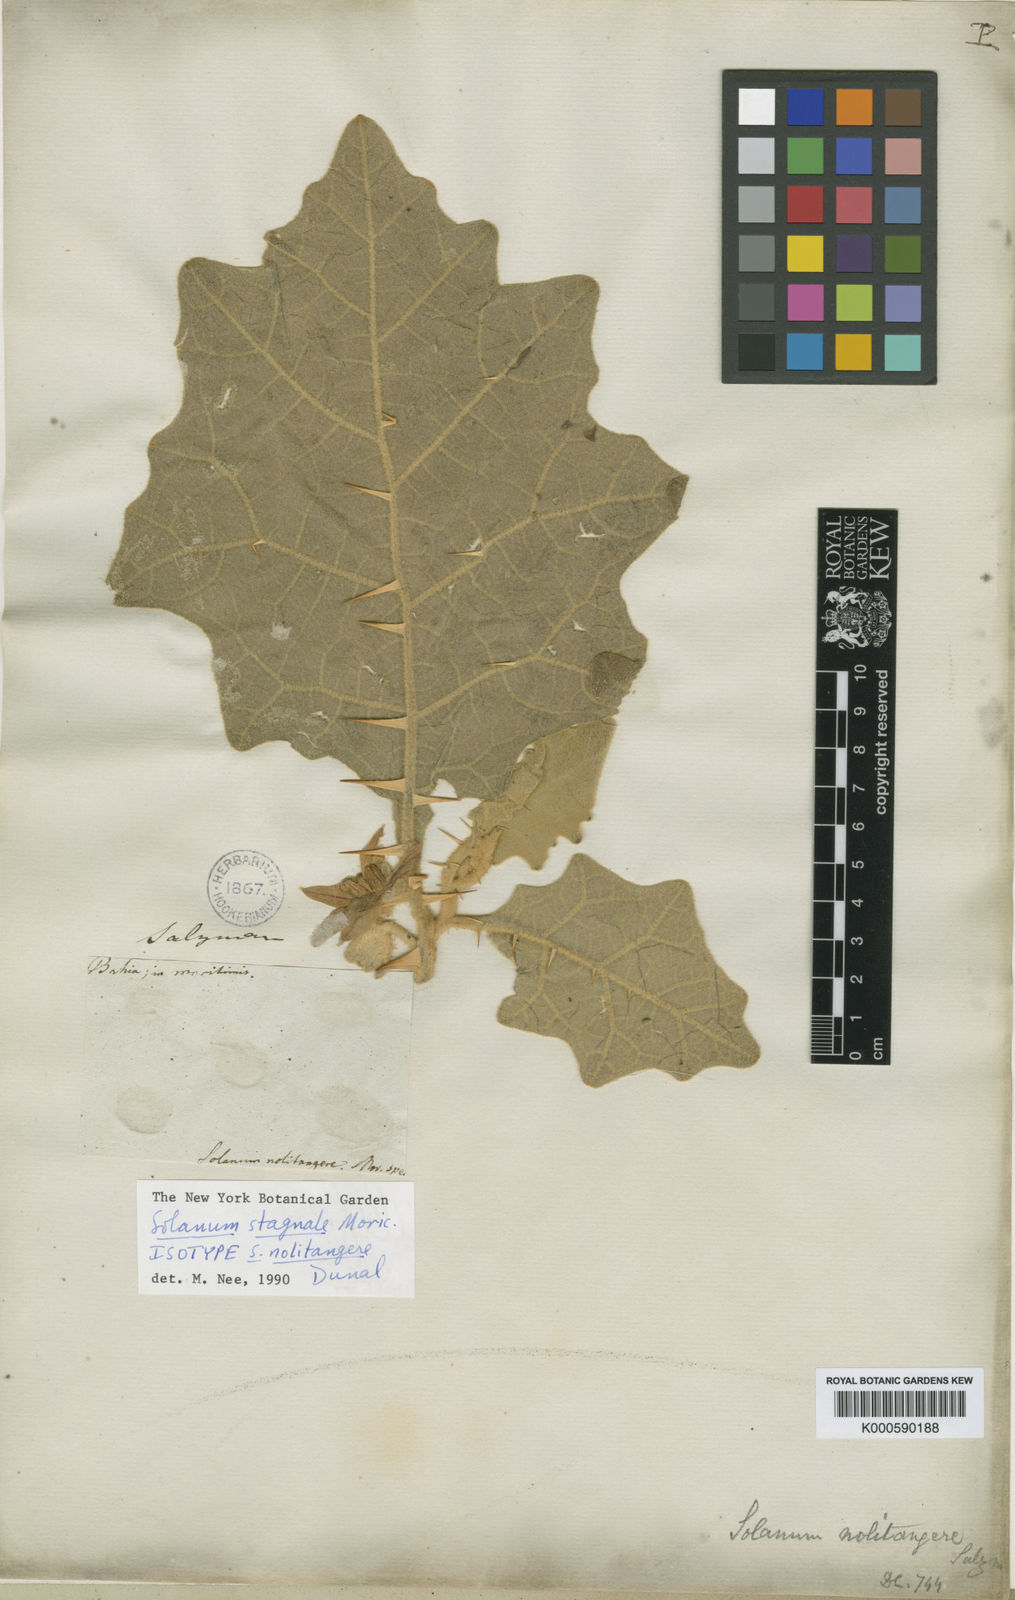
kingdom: Plantae
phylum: Tracheophyta
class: Magnoliopsida
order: Solanales
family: Solanaceae
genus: Solanum
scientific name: Solanum stagnale
